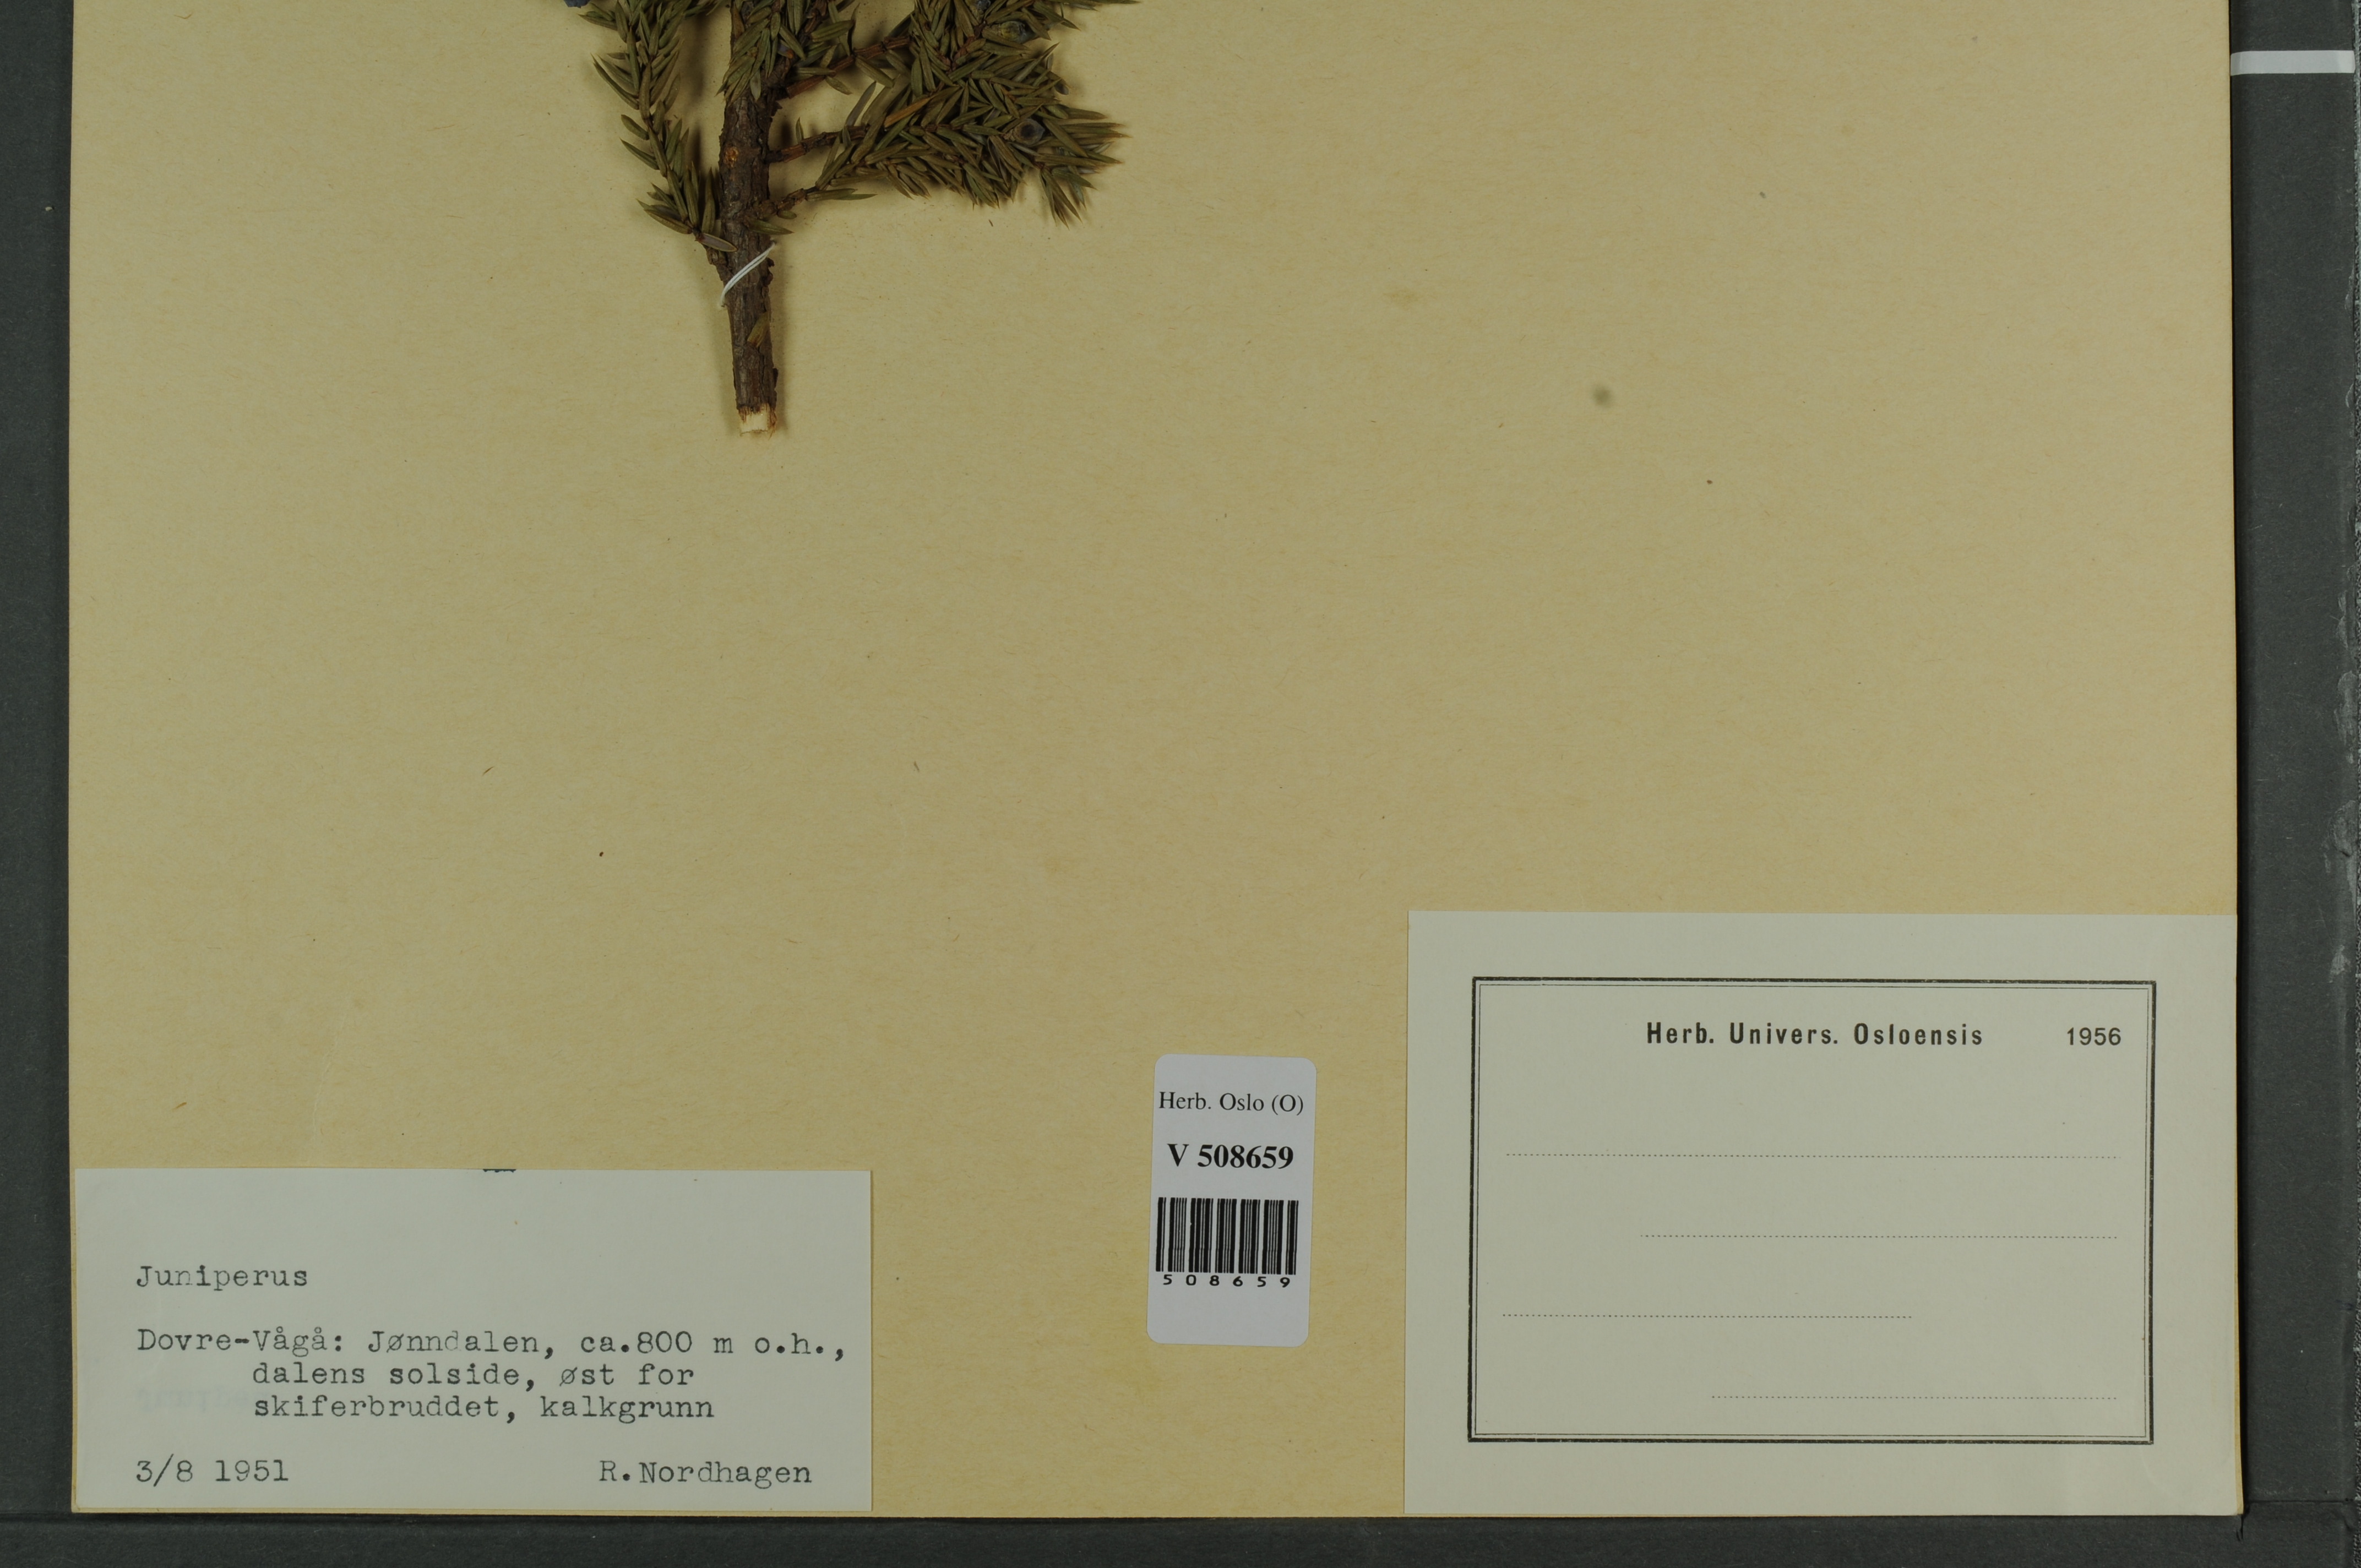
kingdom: Plantae
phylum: Tracheophyta
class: Pinopsida
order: Pinales
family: Cupressaceae
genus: Juniperus
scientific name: Juniperus communis
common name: Common juniper
